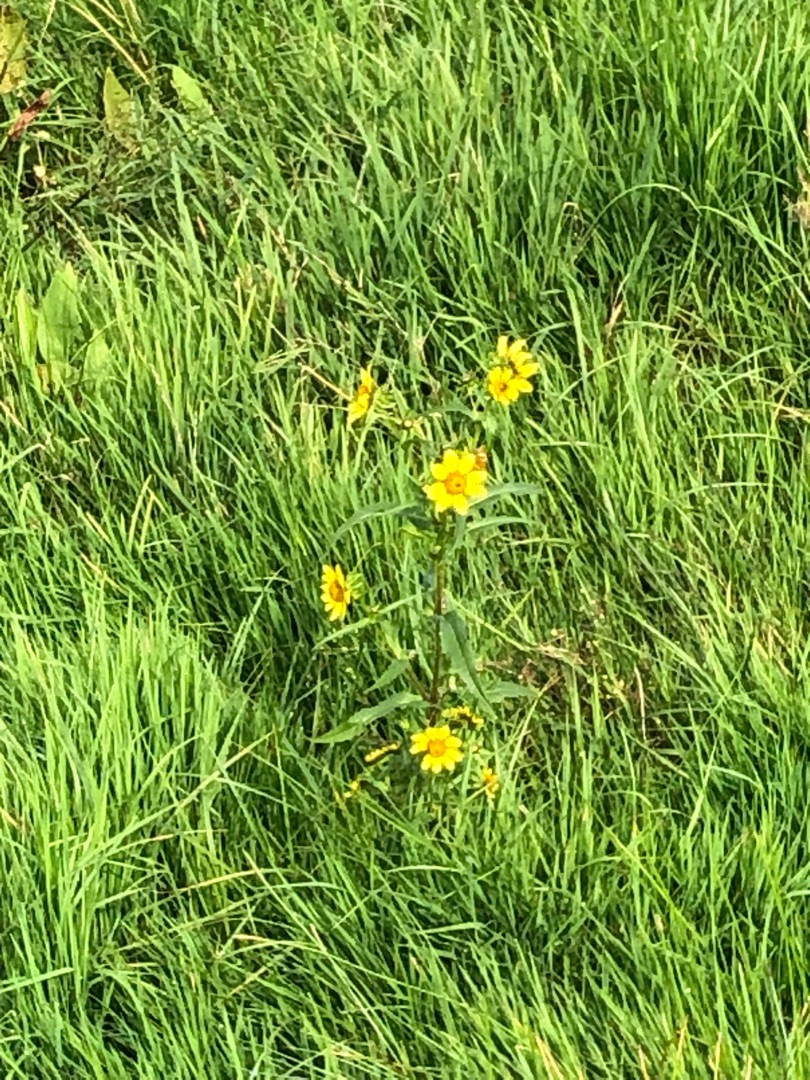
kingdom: Plantae
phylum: Tracheophyta
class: Magnoliopsida
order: Asterales
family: Asteraceae
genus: Bidens
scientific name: Bidens cernua
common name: Nikkende brøndsel
